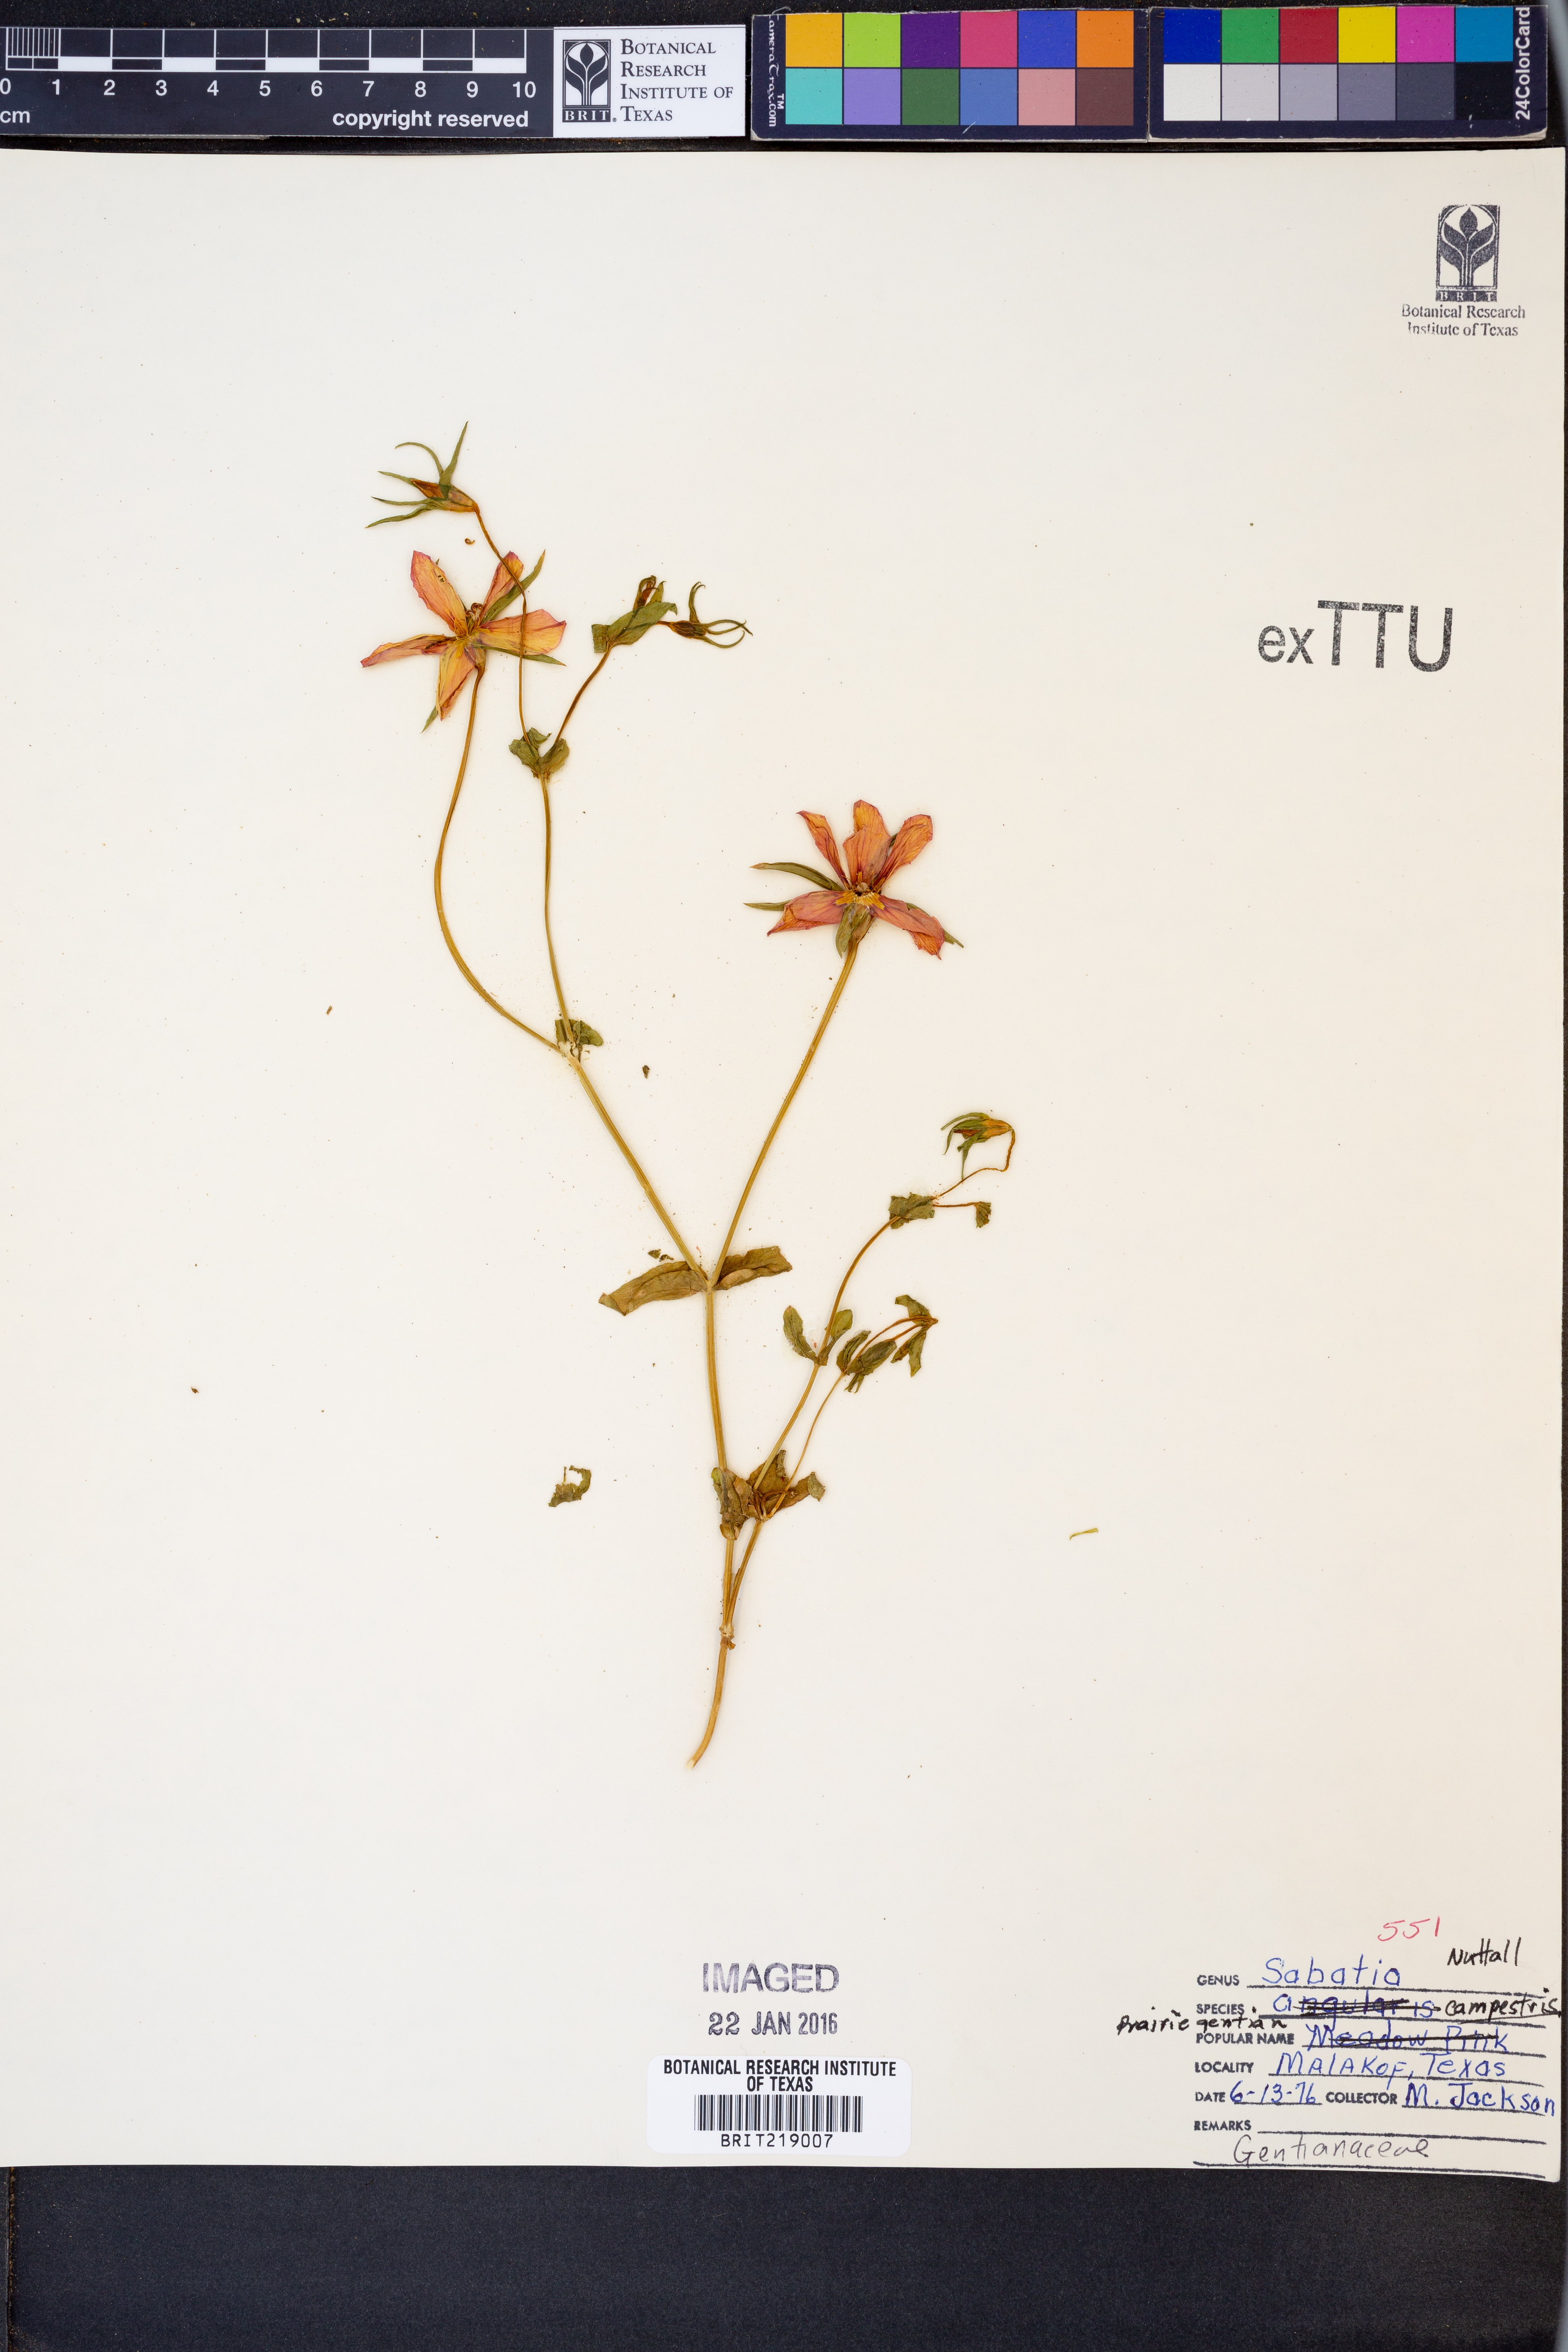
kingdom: Plantae
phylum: Tracheophyta
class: Magnoliopsida
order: Gentianales
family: Gentianaceae
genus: Sabatia
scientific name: Sabatia campestris
